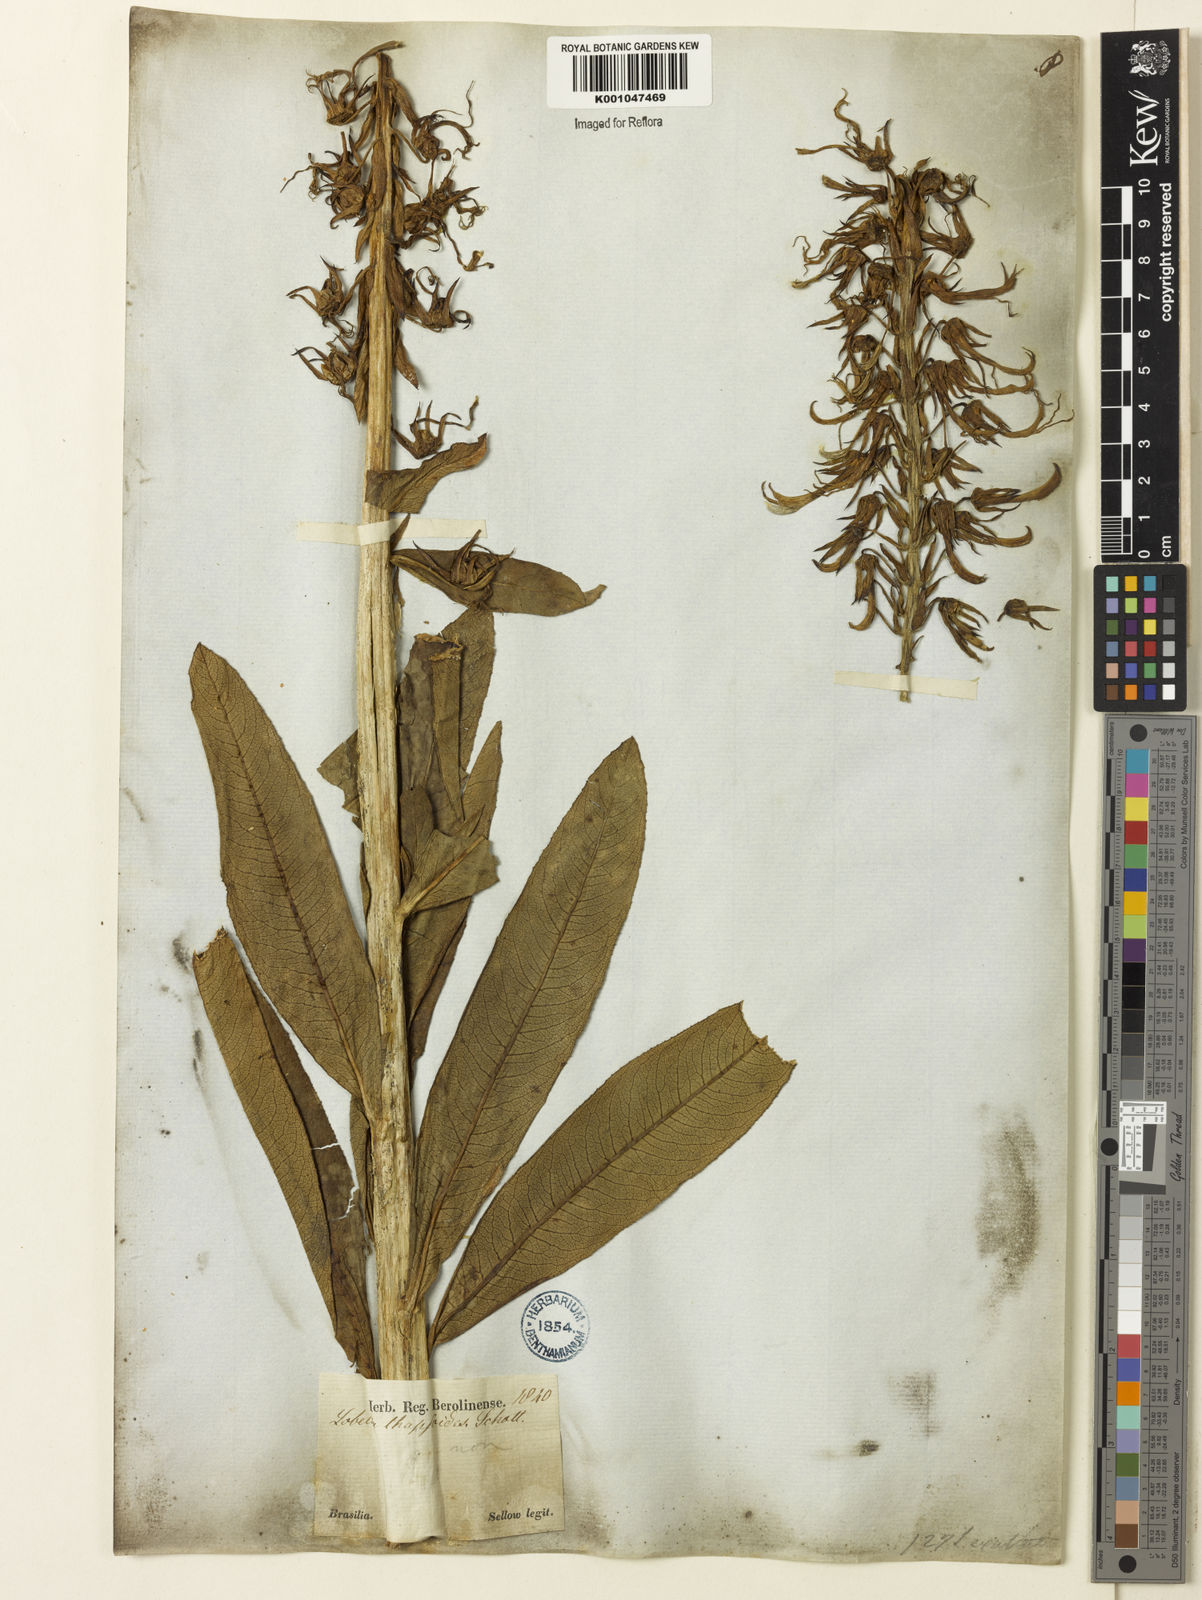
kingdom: Plantae
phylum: Tracheophyta
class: Magnoliopsida
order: Asterales
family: Campanulaceae
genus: Lobelia
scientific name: Lobelia organensis
